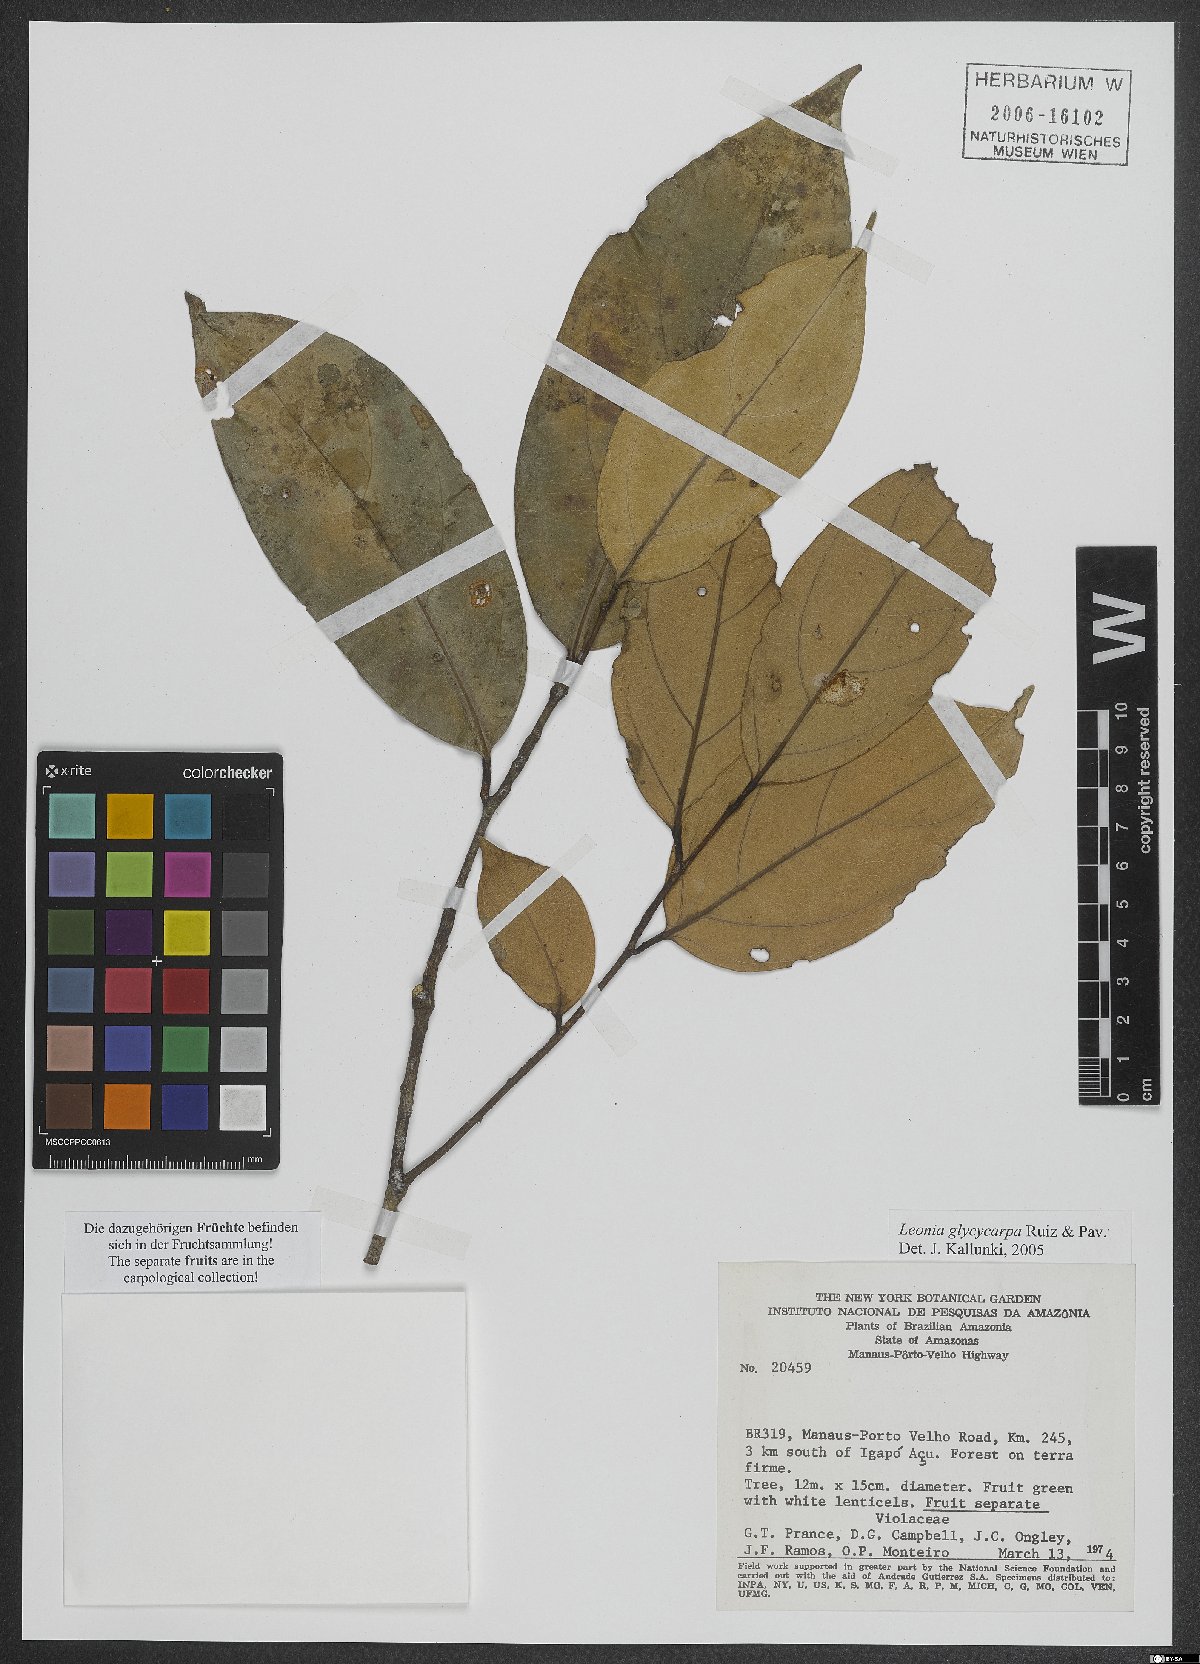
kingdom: Plantae
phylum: Tracheophyta
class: Magnoliopsida
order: Malpighiales
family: Violaceae
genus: Leonia
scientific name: Leonia glycycarpa
